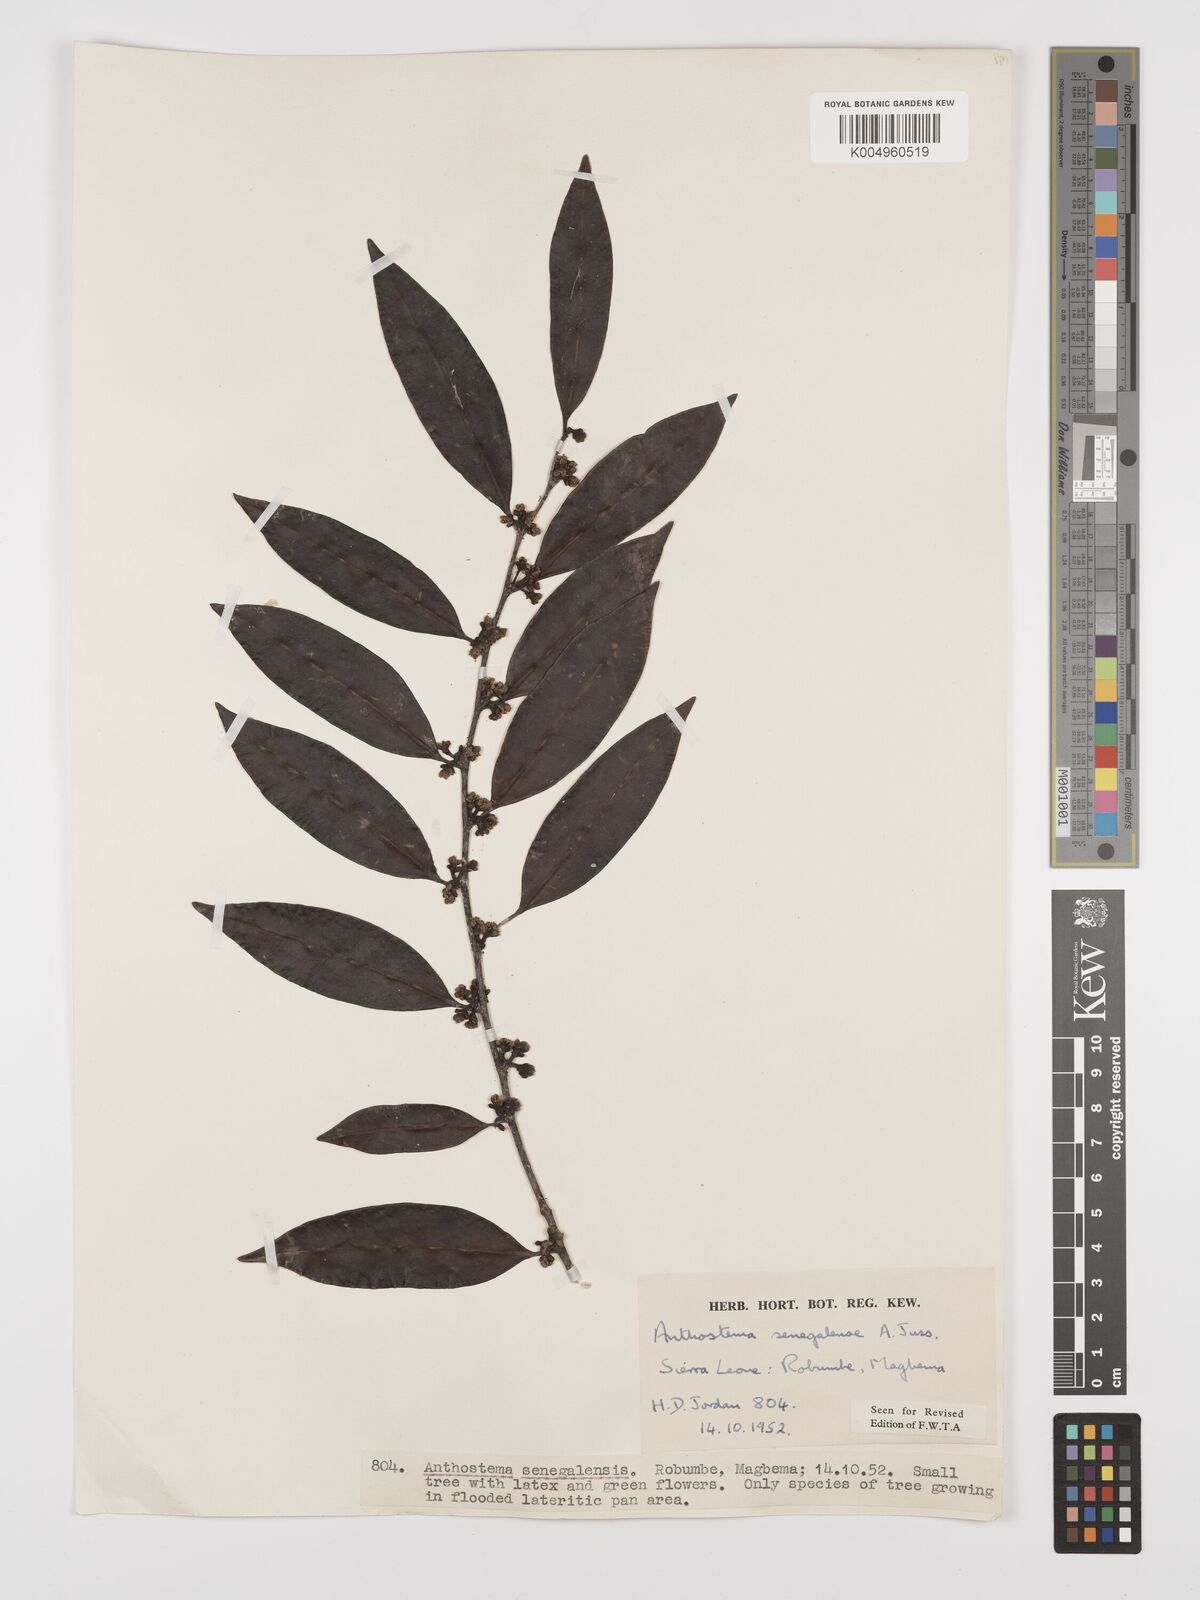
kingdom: Plantae
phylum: Tracheophyta
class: Magnoliopsida
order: Malpighiales
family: Euphorbiaceae
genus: Anthostema
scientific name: Anthostema senegalense
